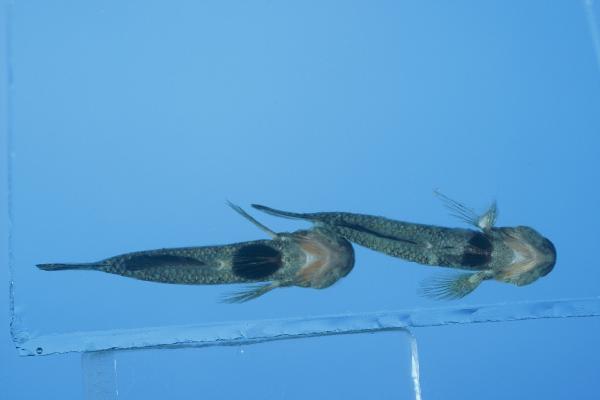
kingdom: Animalia
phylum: Chordata
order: Perciformes
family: Gobiidae
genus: Palutrus
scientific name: Palutrus scapulopunctatus
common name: Scapular goby
